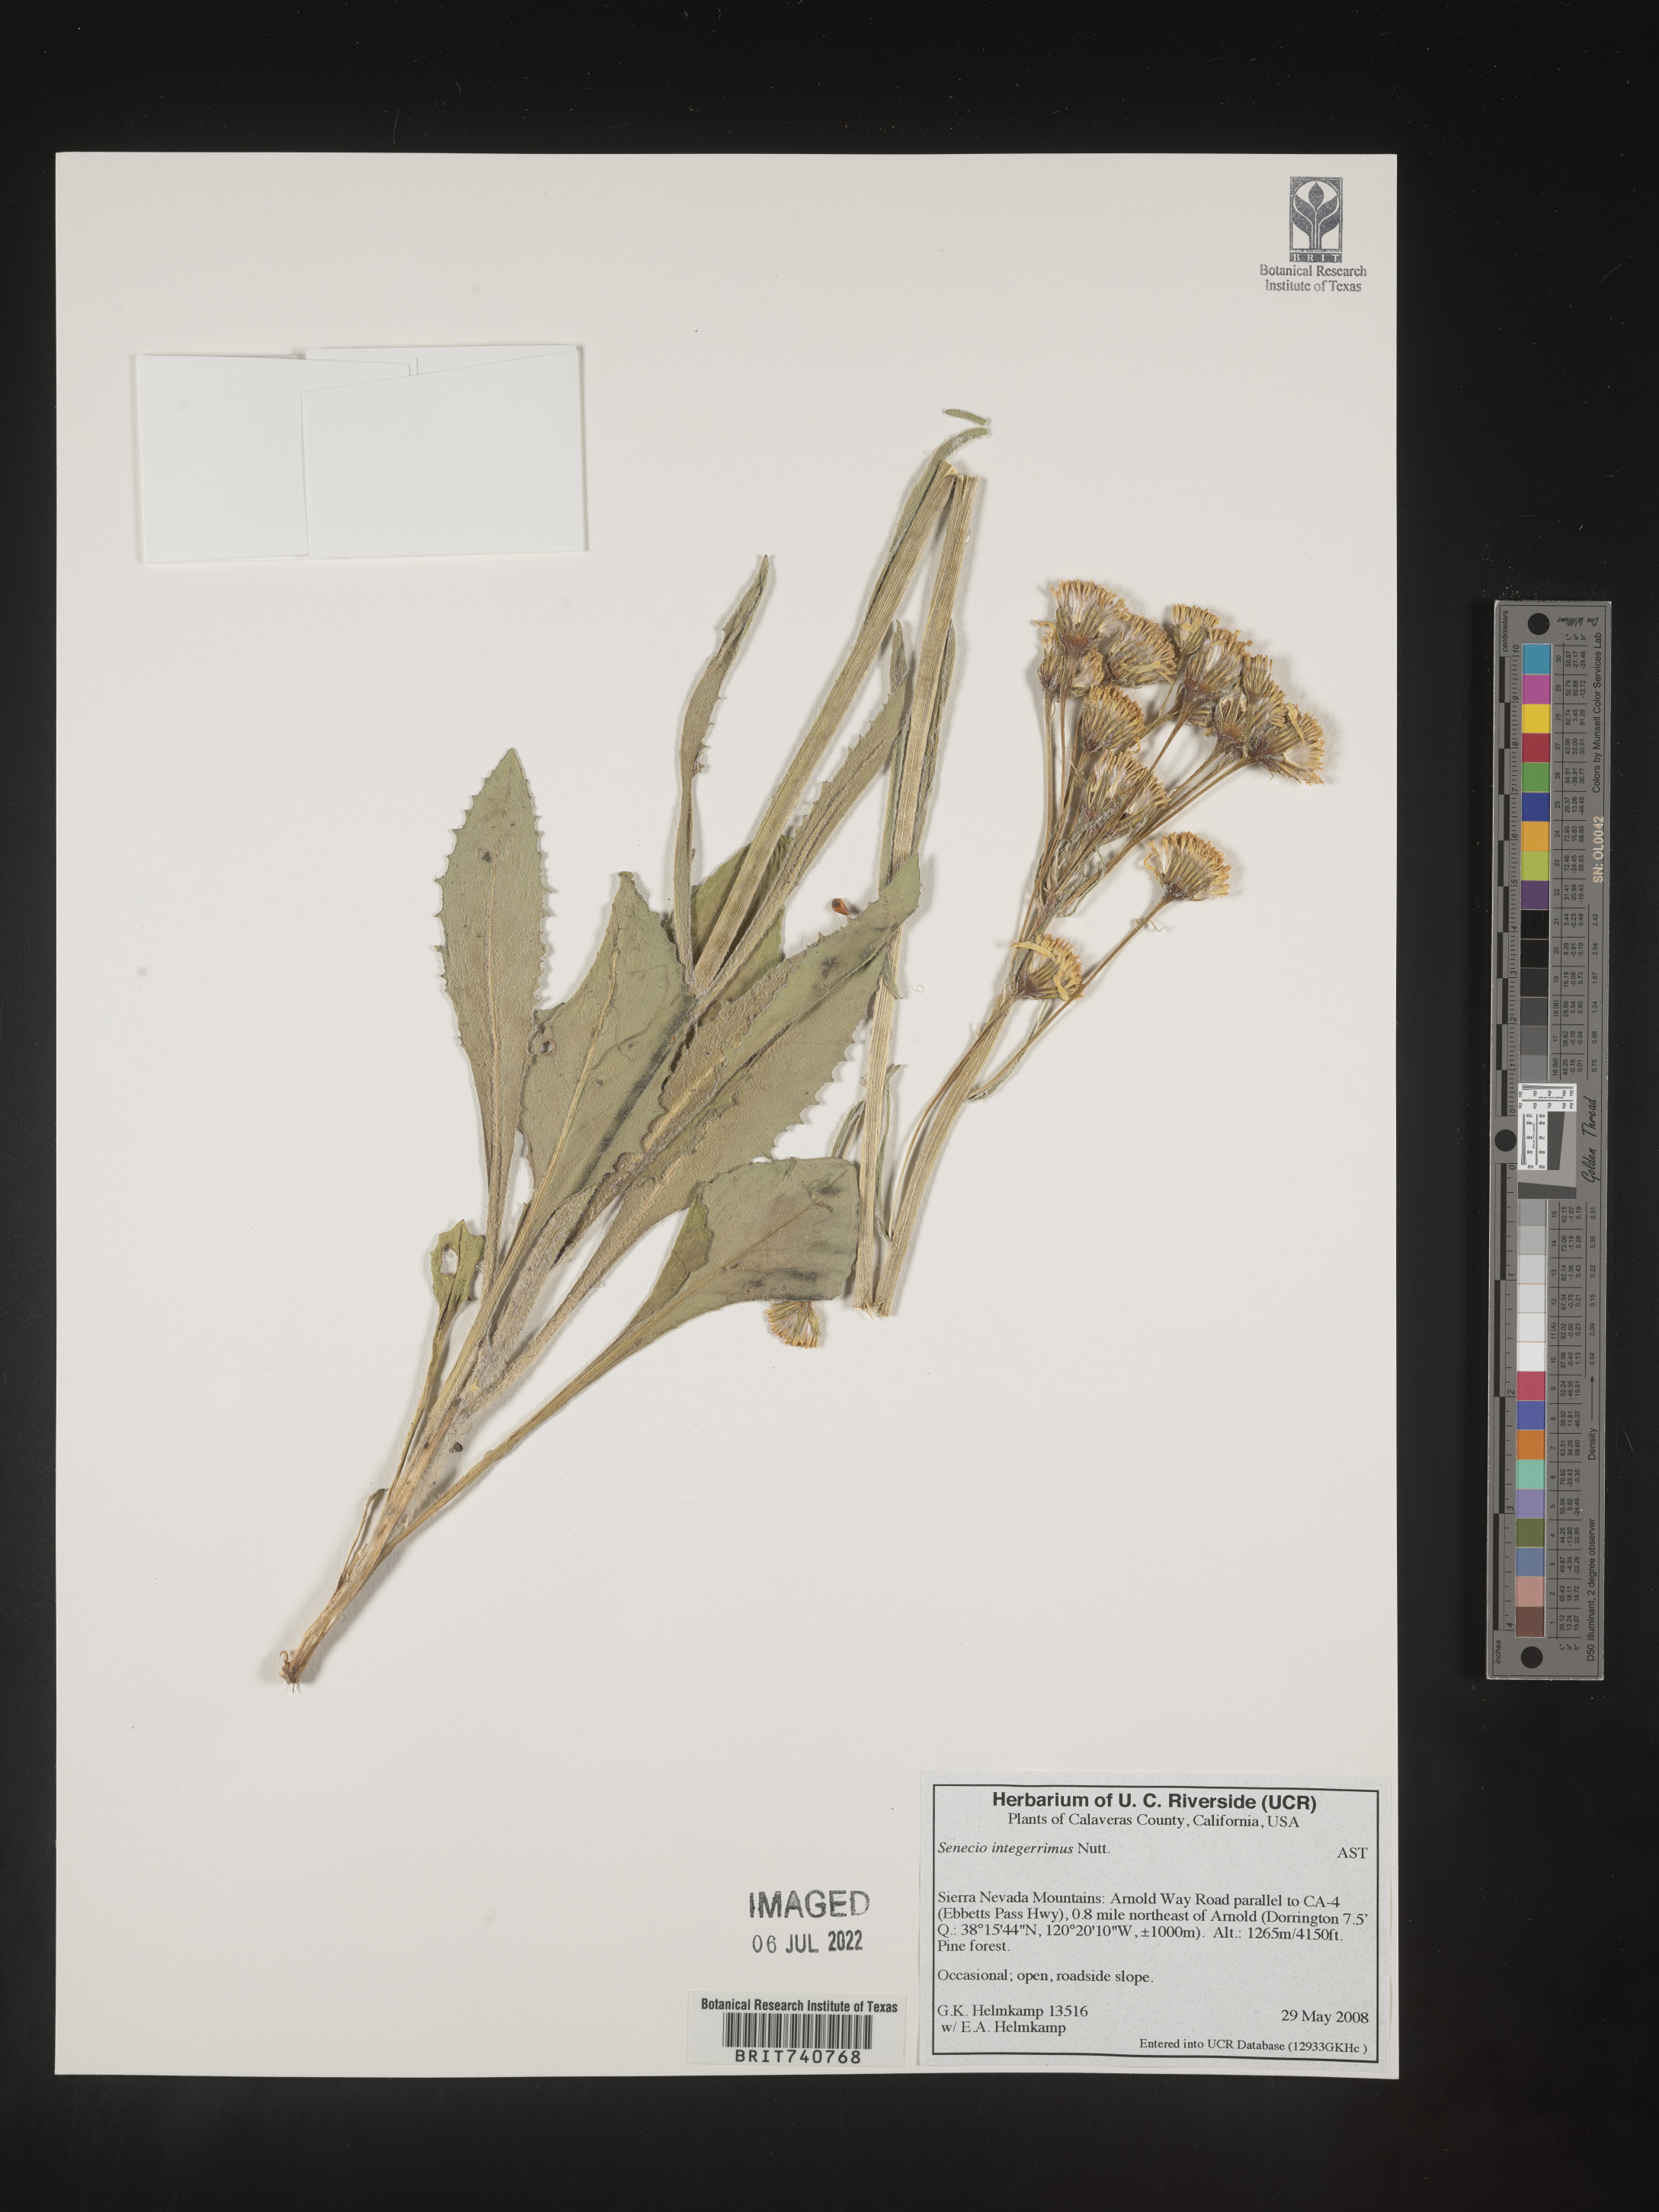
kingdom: Plantae
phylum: Tracheophyta
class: Magnoliopsida
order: Asterales
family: Asteraceae
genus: Senecio
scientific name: Senecio integerrimus
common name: Gaugeplant
